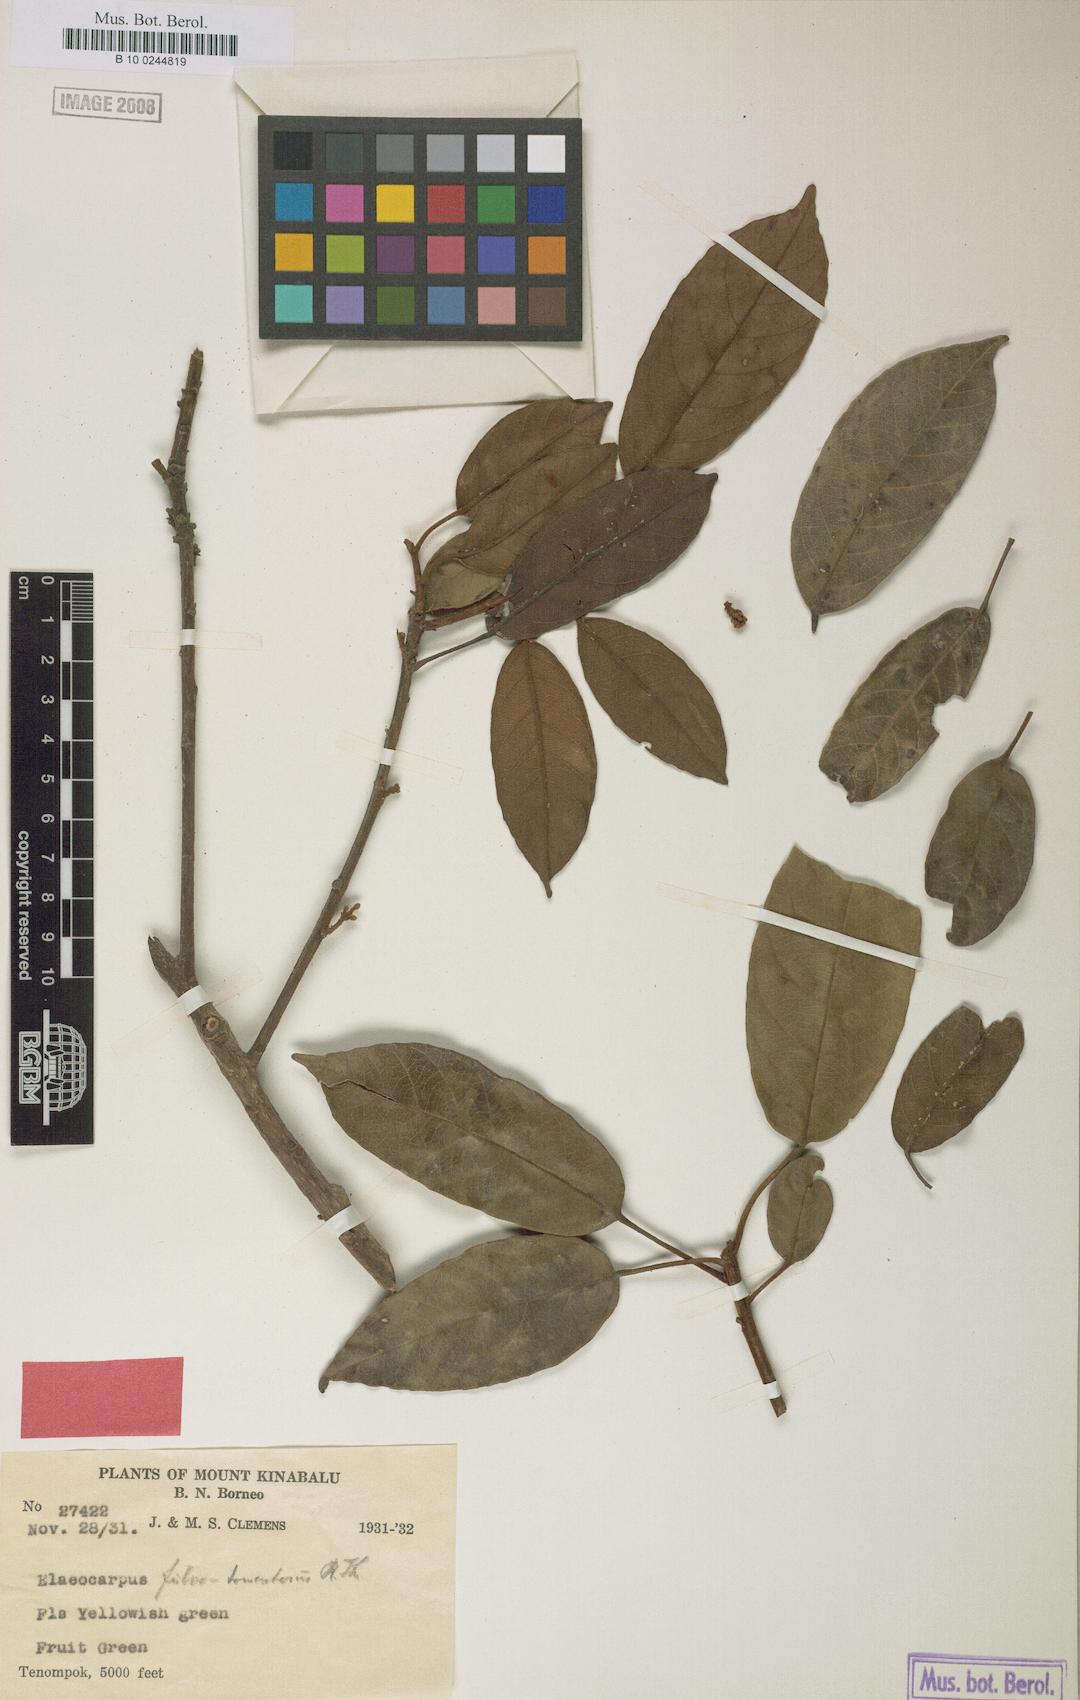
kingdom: Plantae
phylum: Tracheophyta
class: Magnoliopsida
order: Oxalidales
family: Elaeocarpaceae
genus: Elaeocarpus
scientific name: Elaeocarpus ferrugineus
